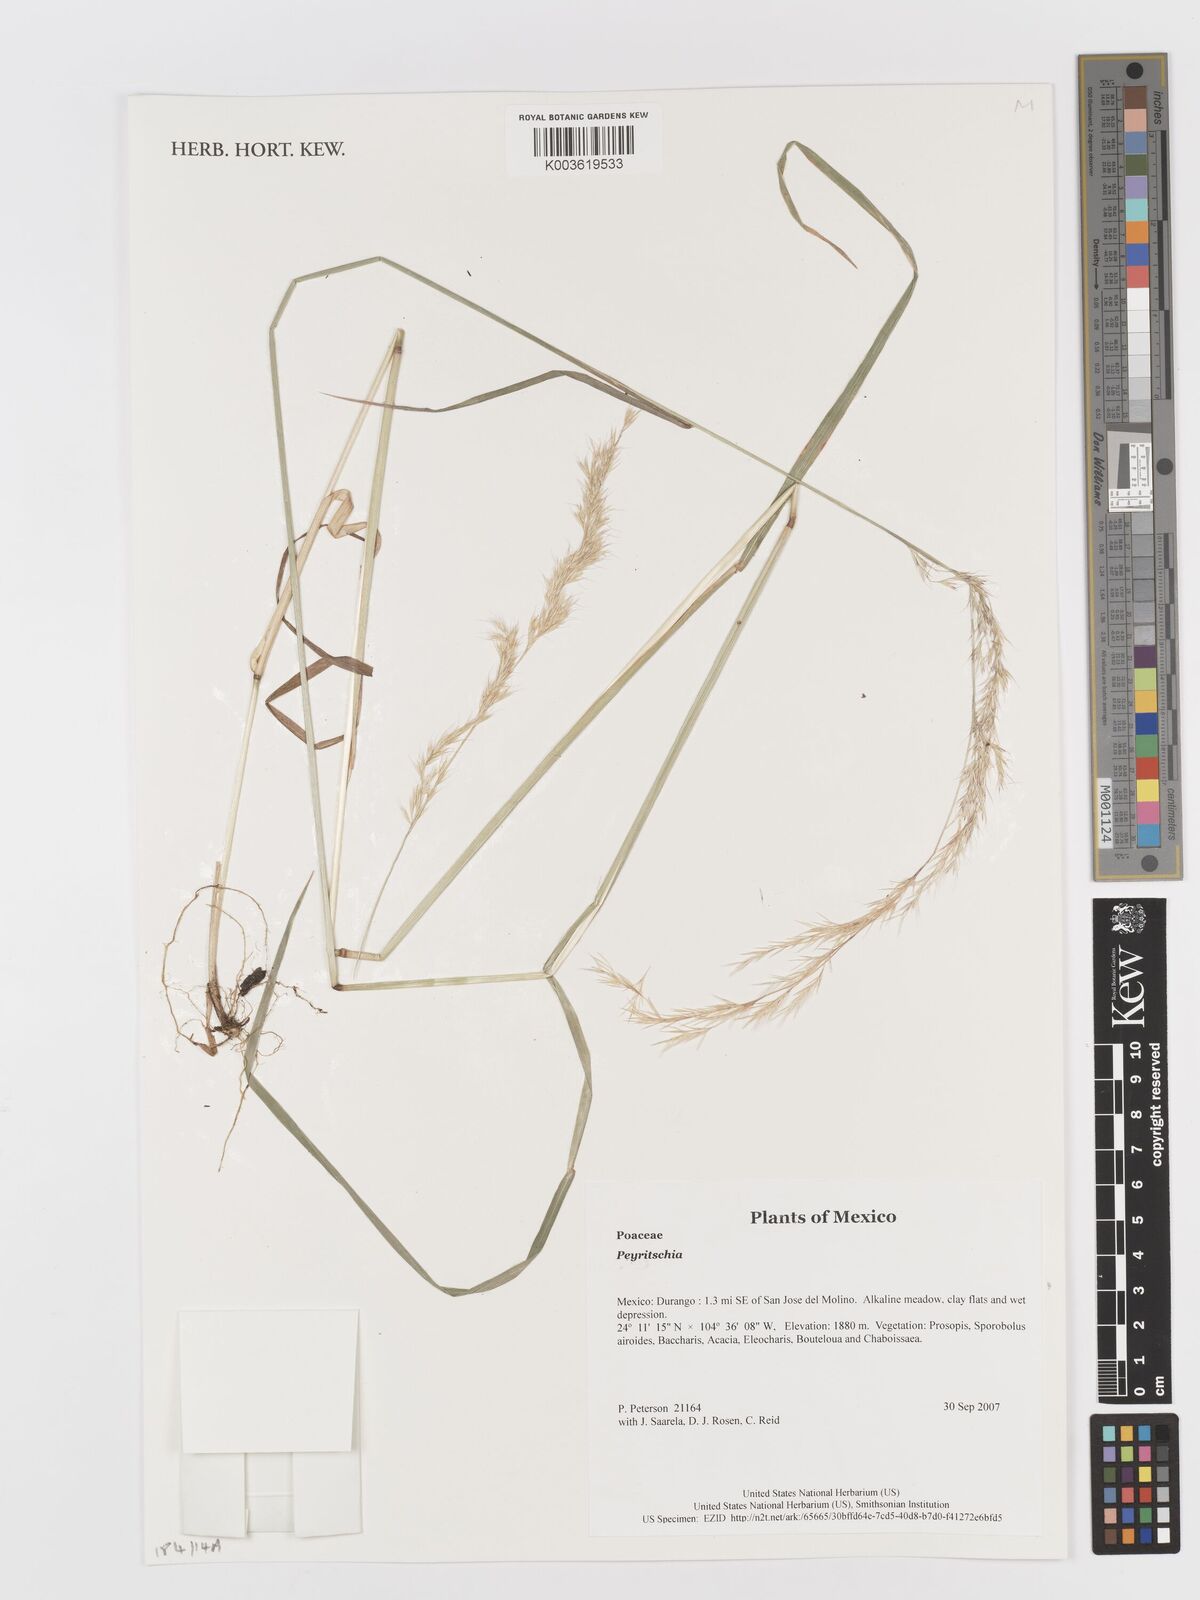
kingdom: Plantae
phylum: Tracheophyta
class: Liliopsida
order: Poales
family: Poaceae
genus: Peyritschia
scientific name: Peyritschia
